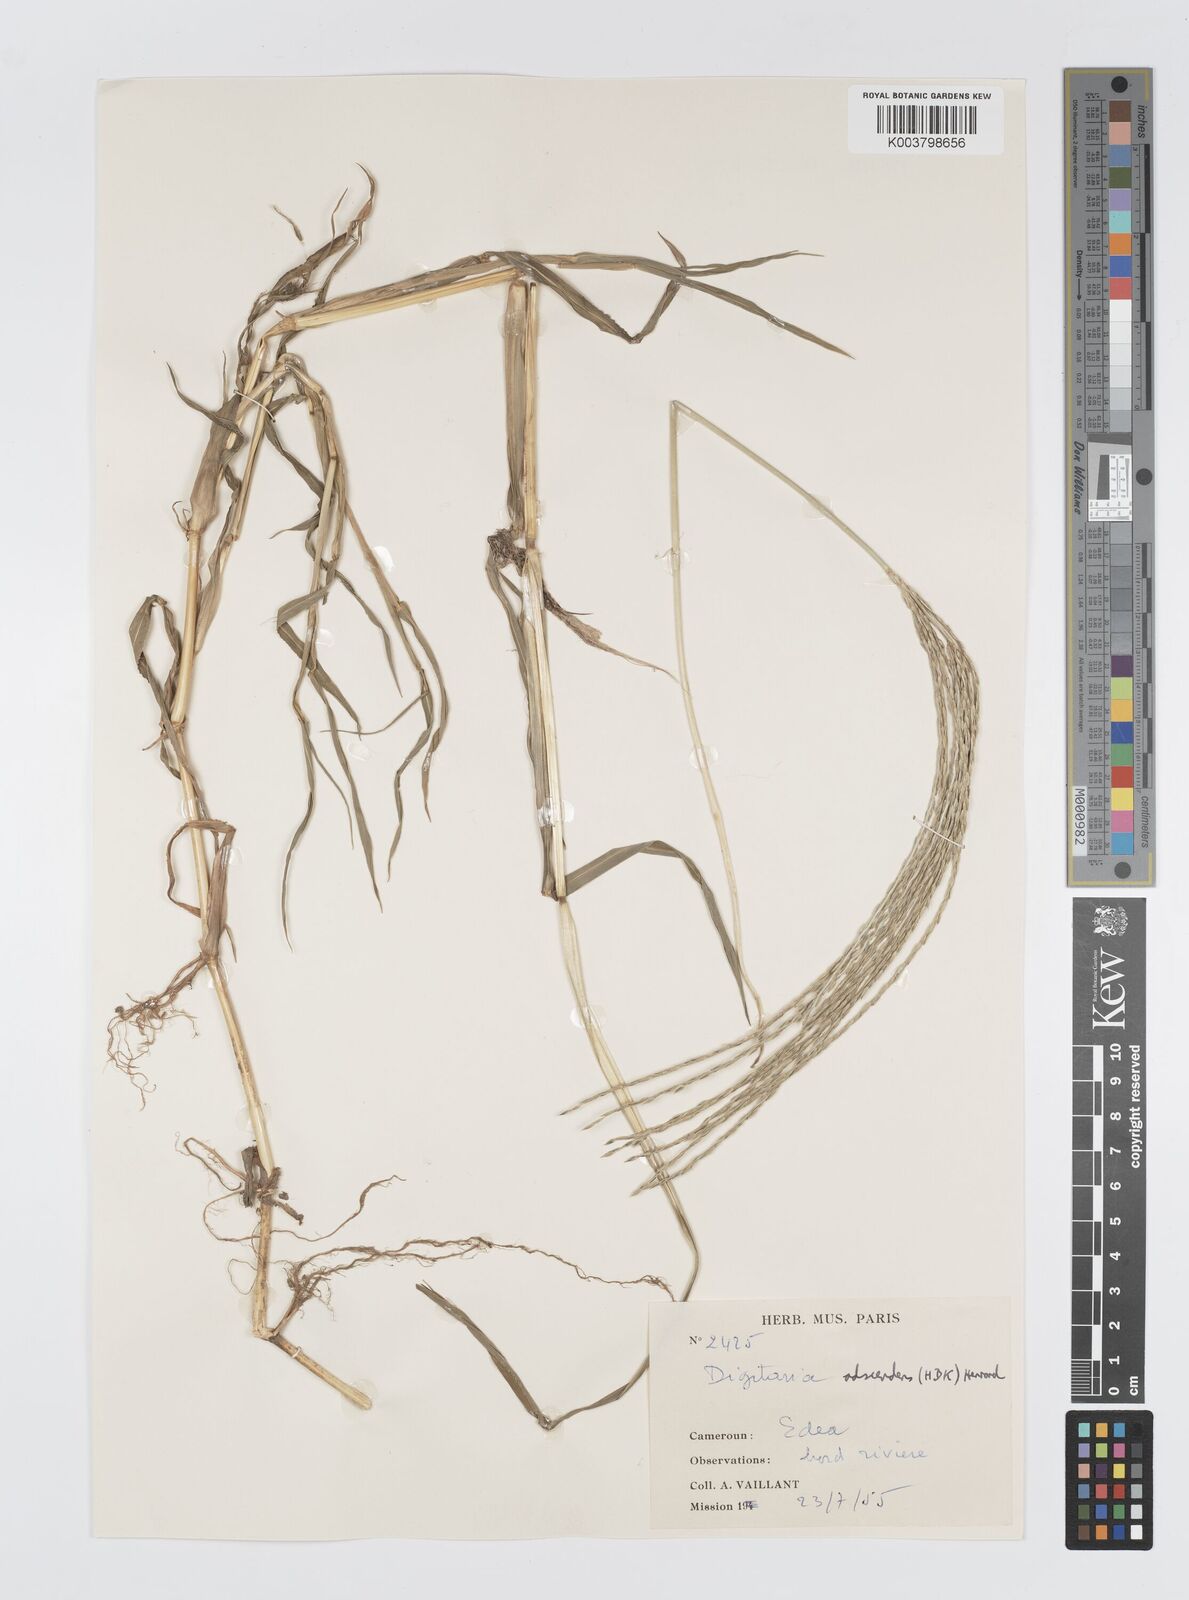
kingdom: Plantae
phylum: Tracheophyta
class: Liliopsida
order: Poales
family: Poaceae
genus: Digitaria
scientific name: Digitaria acuminatissima
